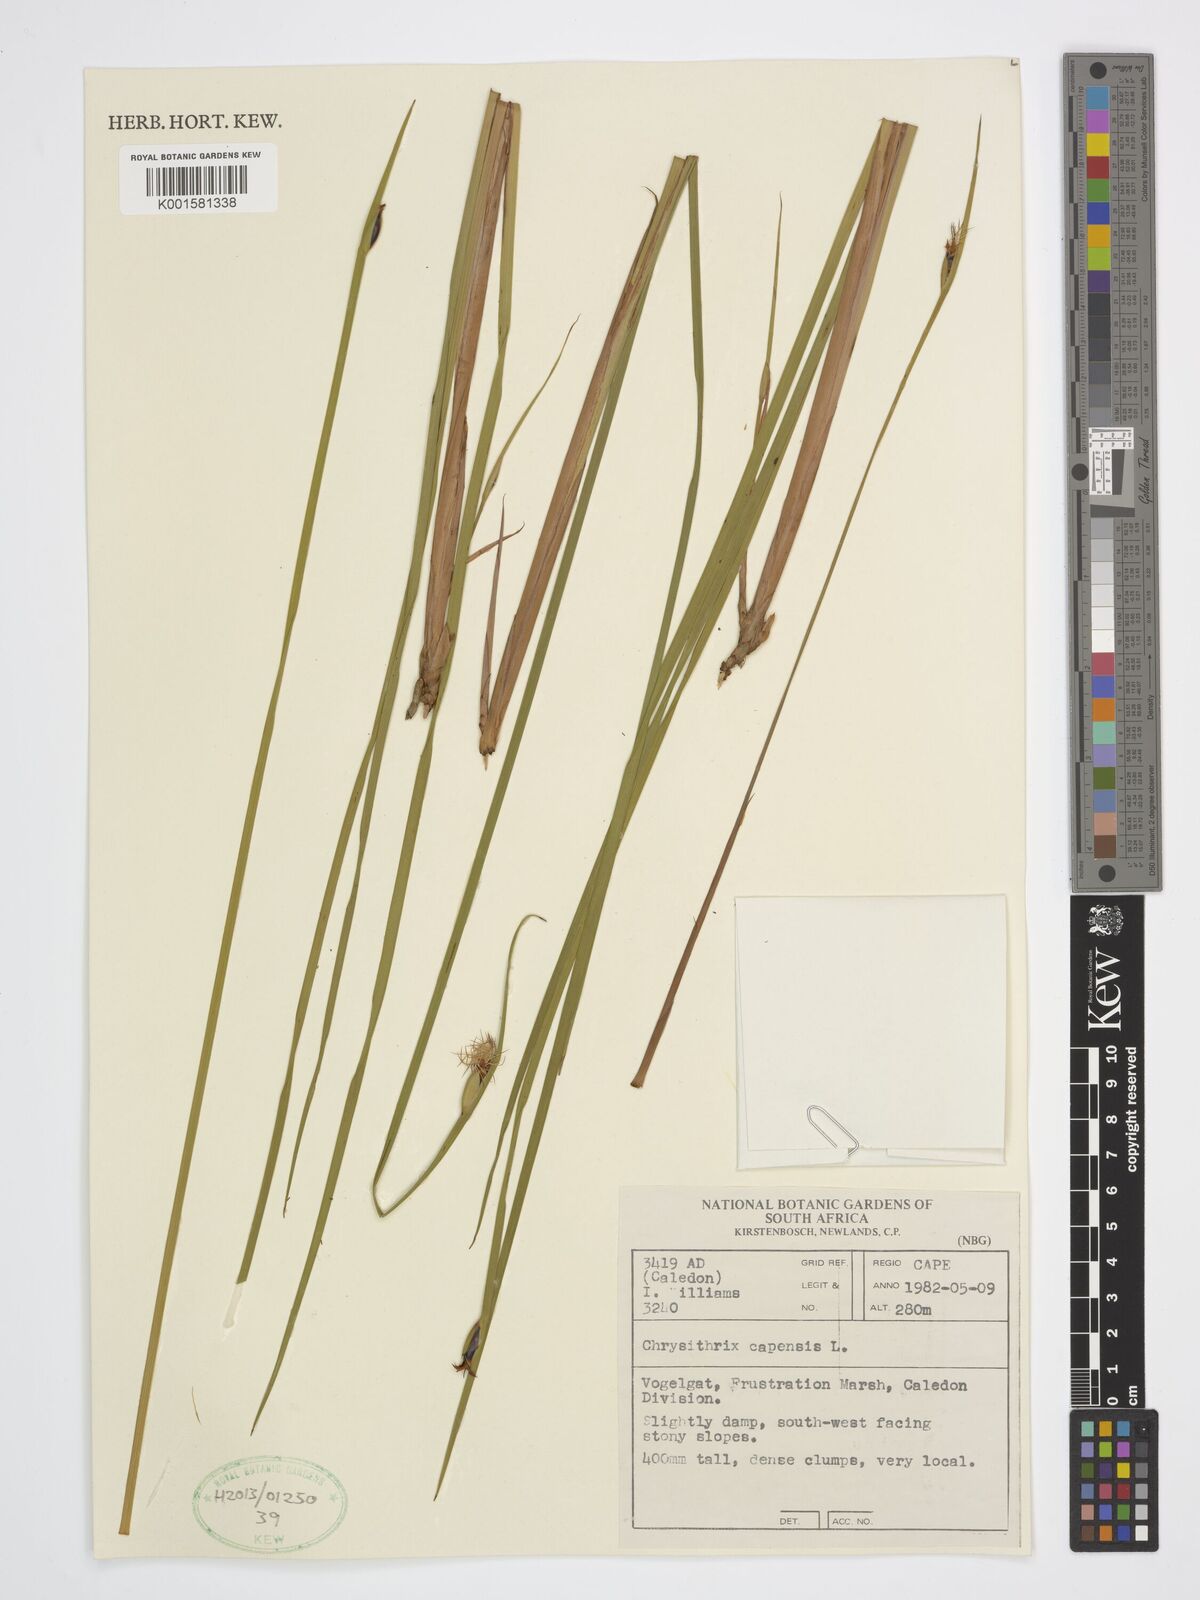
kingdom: Plantae
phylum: Tracheophyta
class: Liliopsida
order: Poales
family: Cyperaceae
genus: Chrysitrix
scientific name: Chrysitrix capensis
